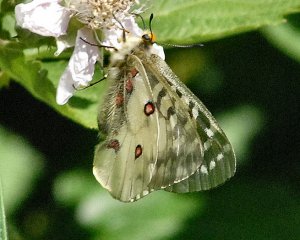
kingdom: Animalia
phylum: Arthropoda
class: Insecta
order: Lepidoptera
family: Papilionidae
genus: Parnassius
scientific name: Parnassius clodius
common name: Clodius Parnassian
